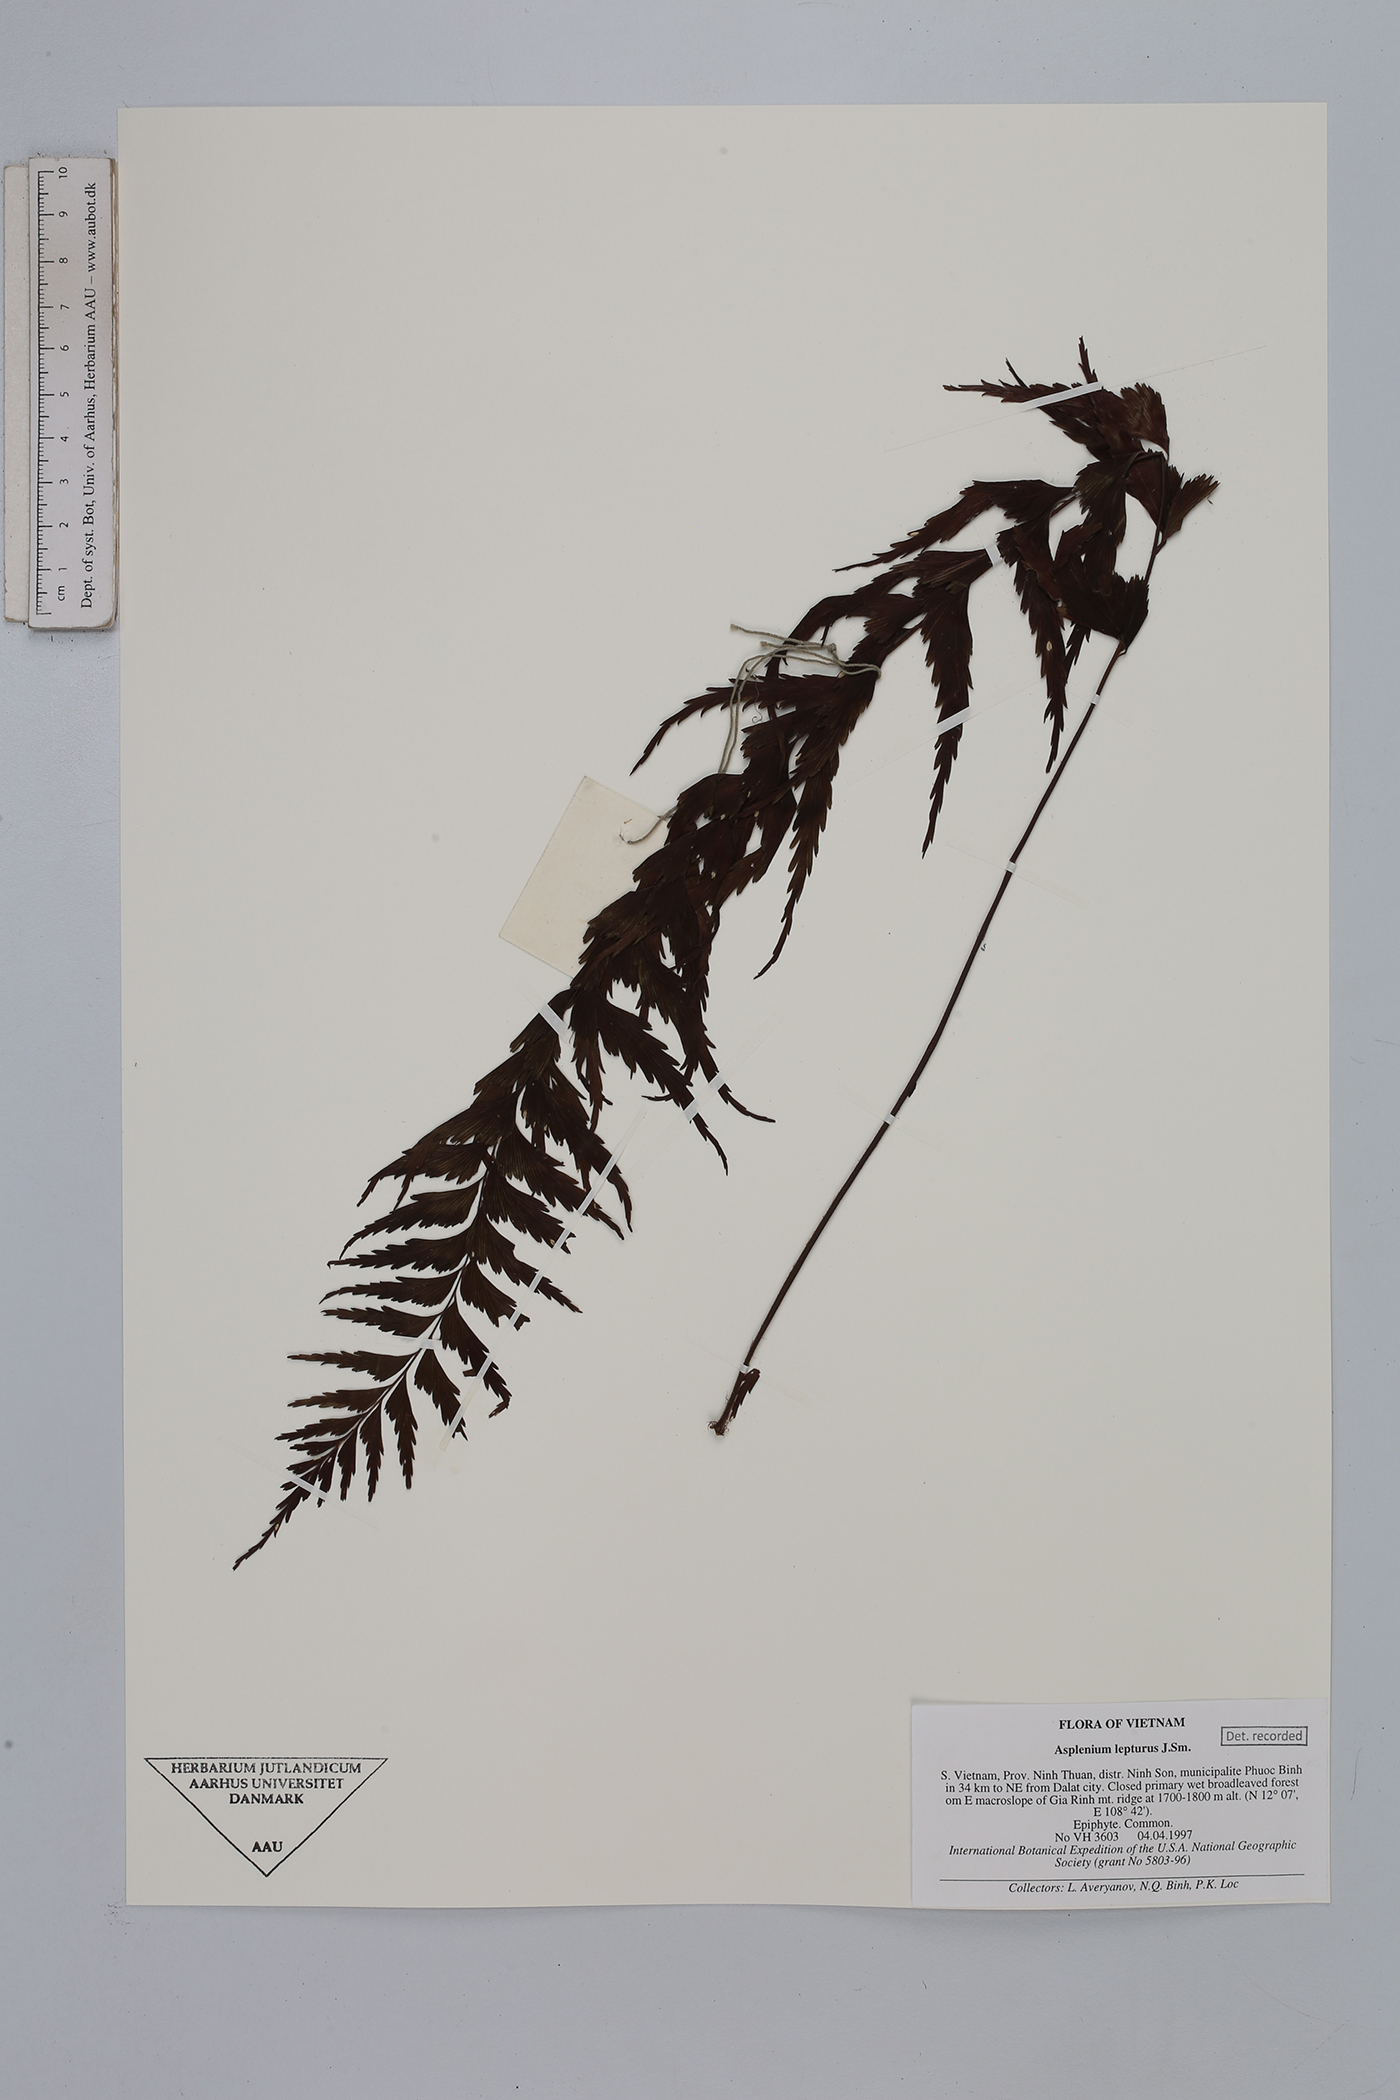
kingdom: Plantae
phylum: Tracheophyta
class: Polypodiopsida
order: Polypodiales
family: Aspleniaceae
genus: Asplenium
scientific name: Asplenium lepturus
